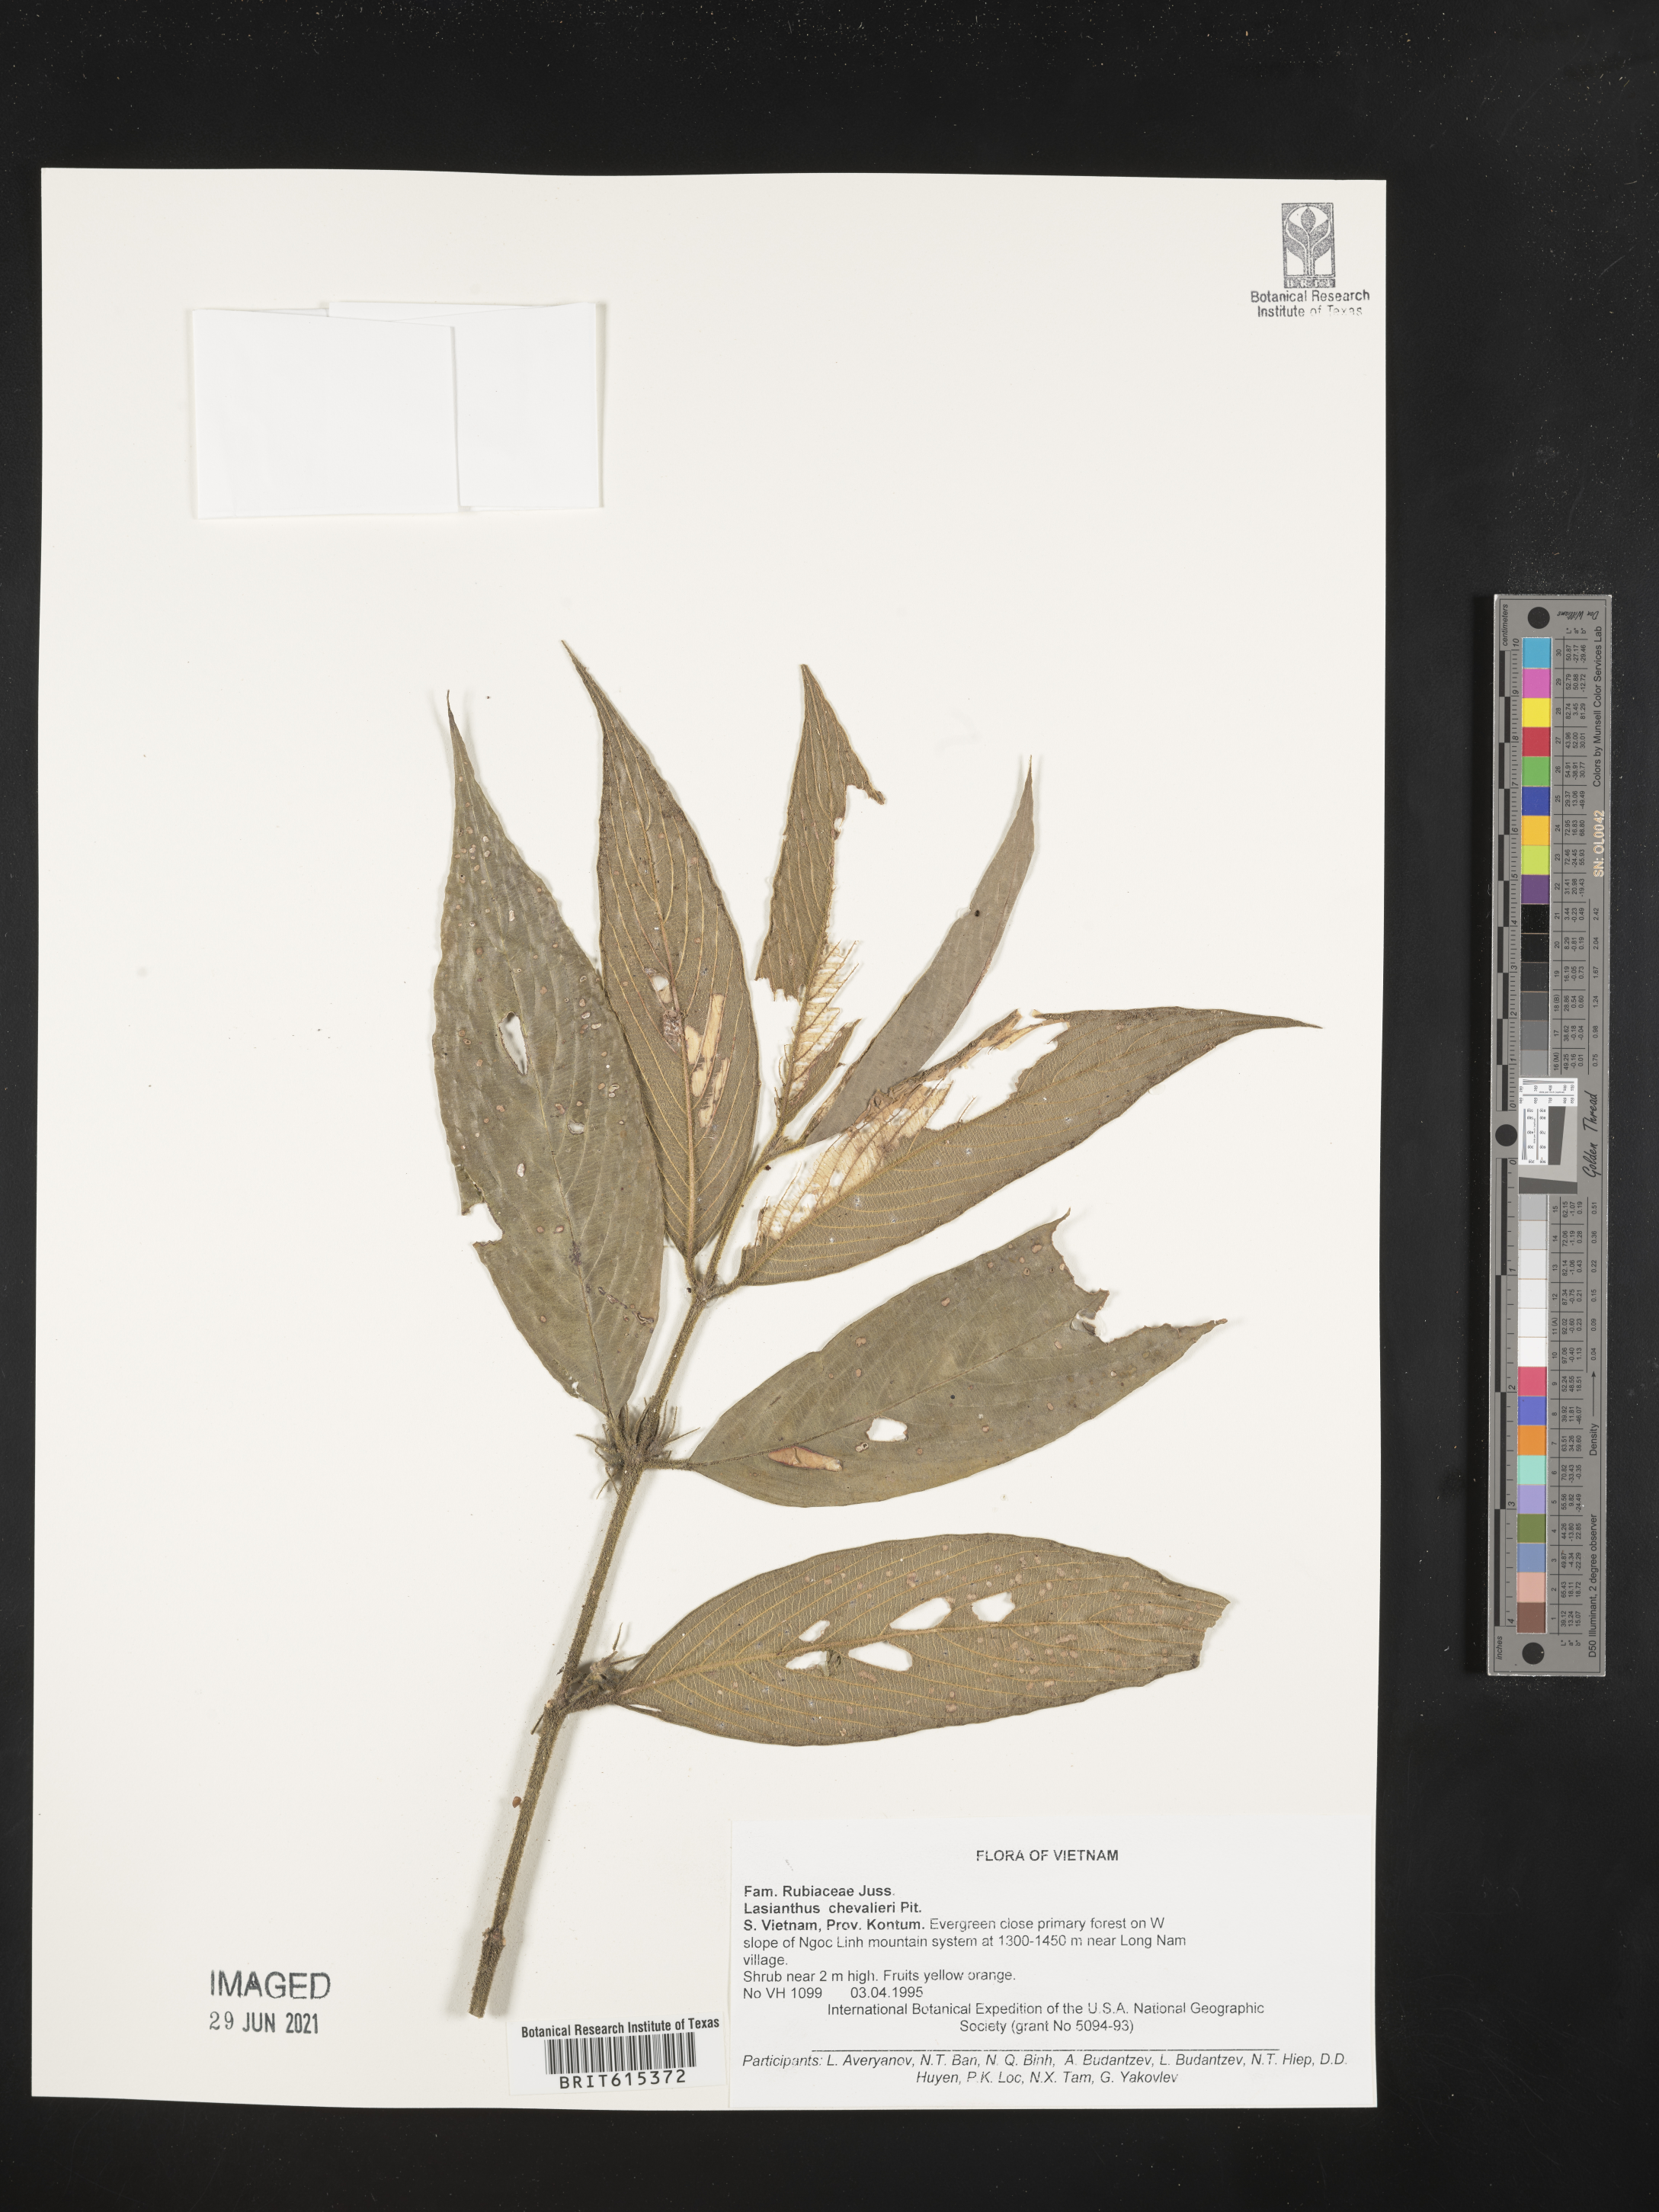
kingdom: Plantae
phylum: Tracheophyta
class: Magnoliopsida
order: Gentianales
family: Rubiaceae
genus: Lasianthus
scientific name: Lasianthus chevalieri
